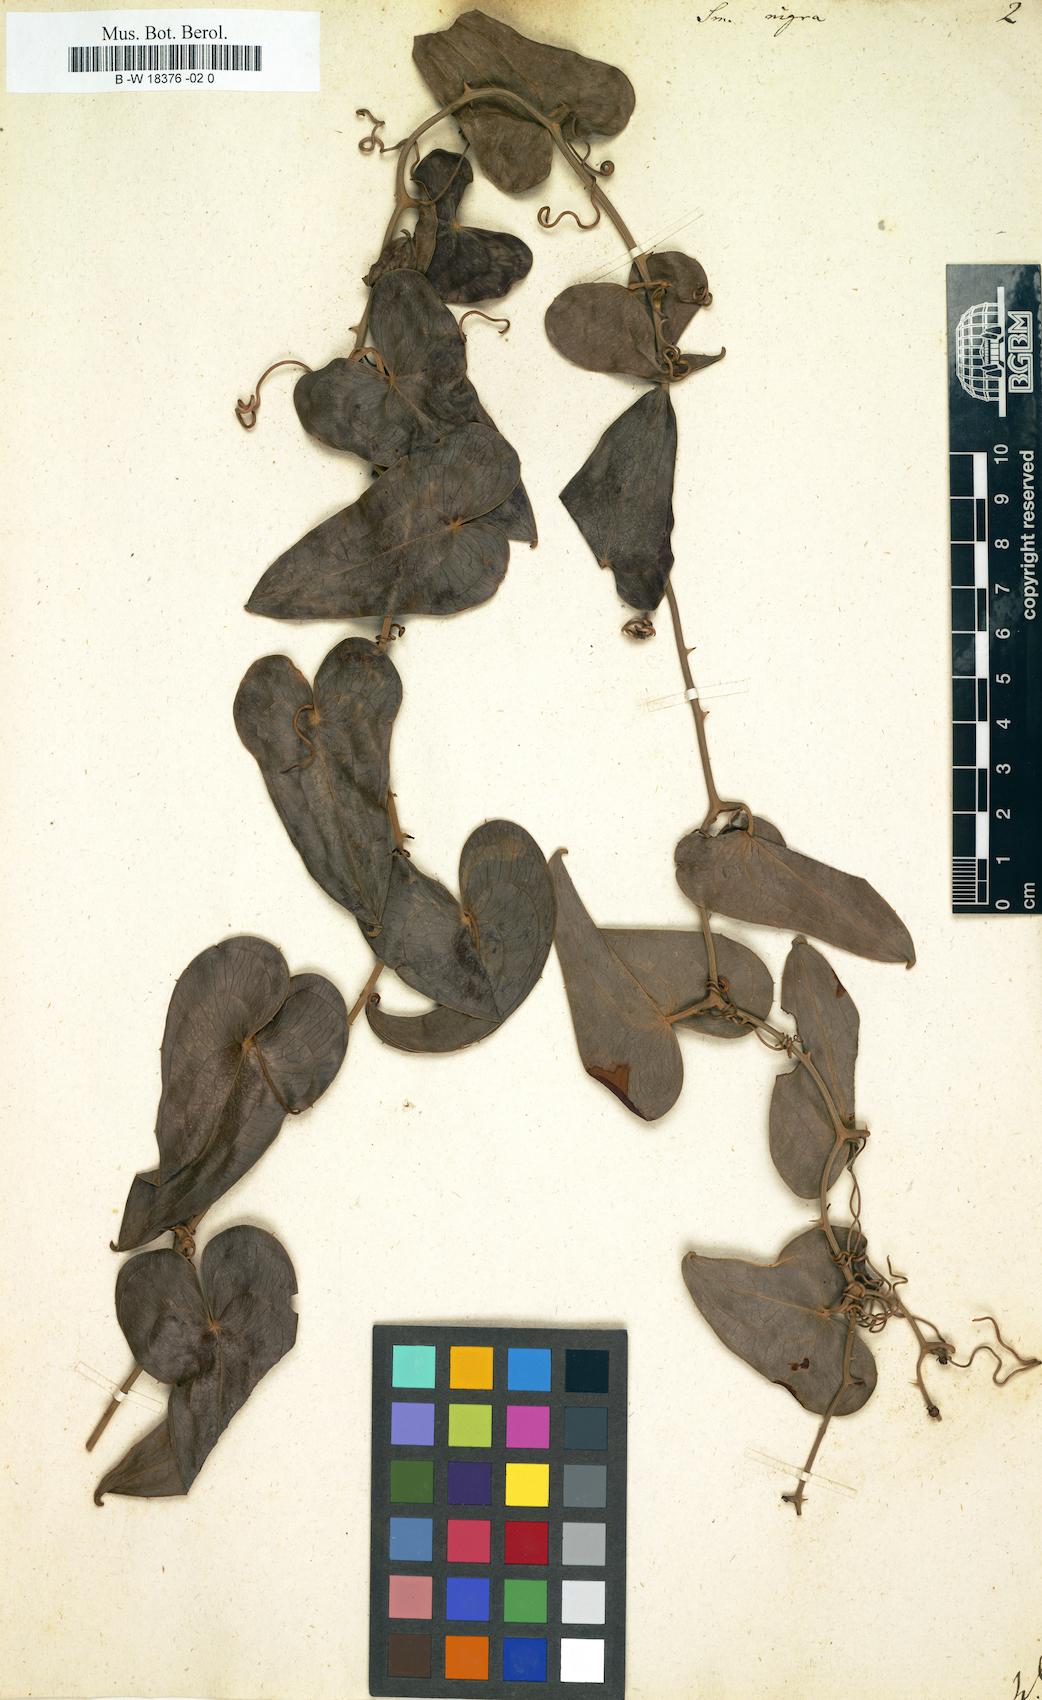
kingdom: Plantae
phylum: Tracheophyta
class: Liliopsida
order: Liliales
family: Smilacaceae
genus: Smilax
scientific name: Smilax aspera
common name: Common smilax
